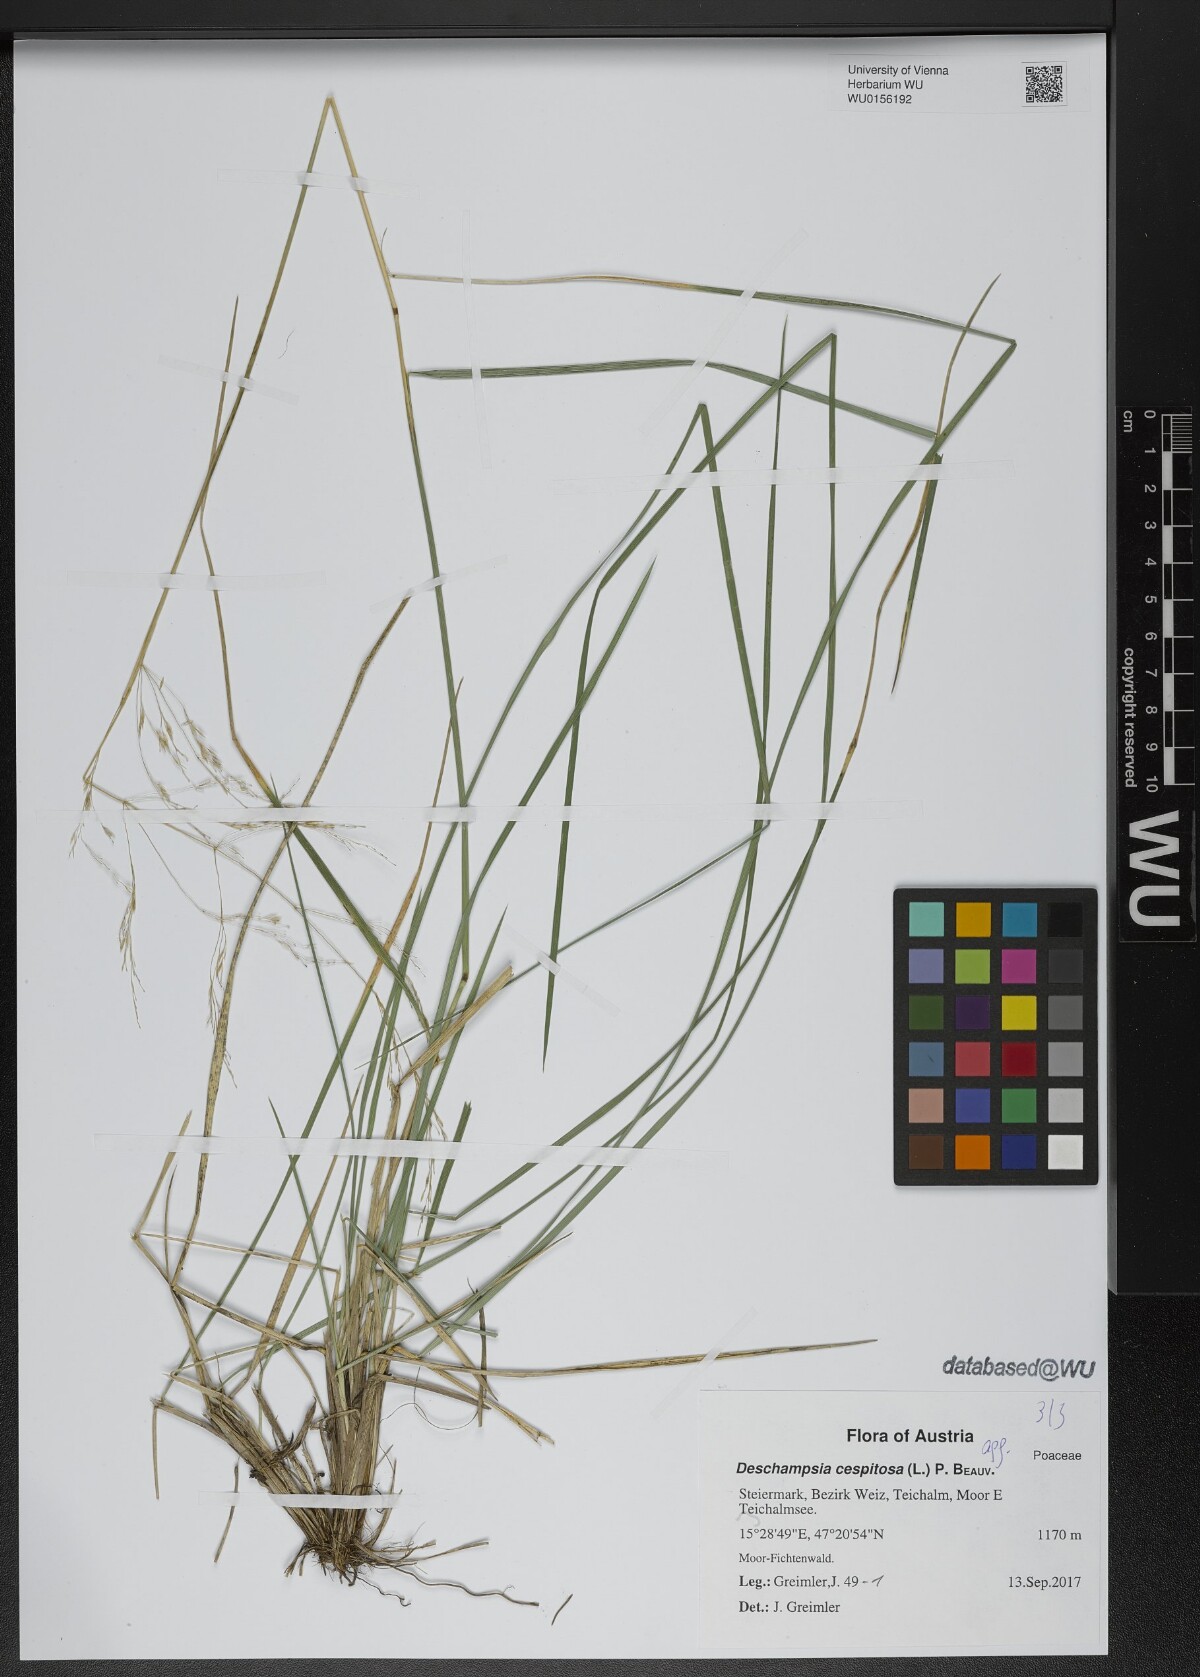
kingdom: Plantae
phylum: Tracheophyta
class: Liliopsida
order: Poales
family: Poaceae
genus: Deschampsia
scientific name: Deschampsia cespitosa
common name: Tufted hair-grass
